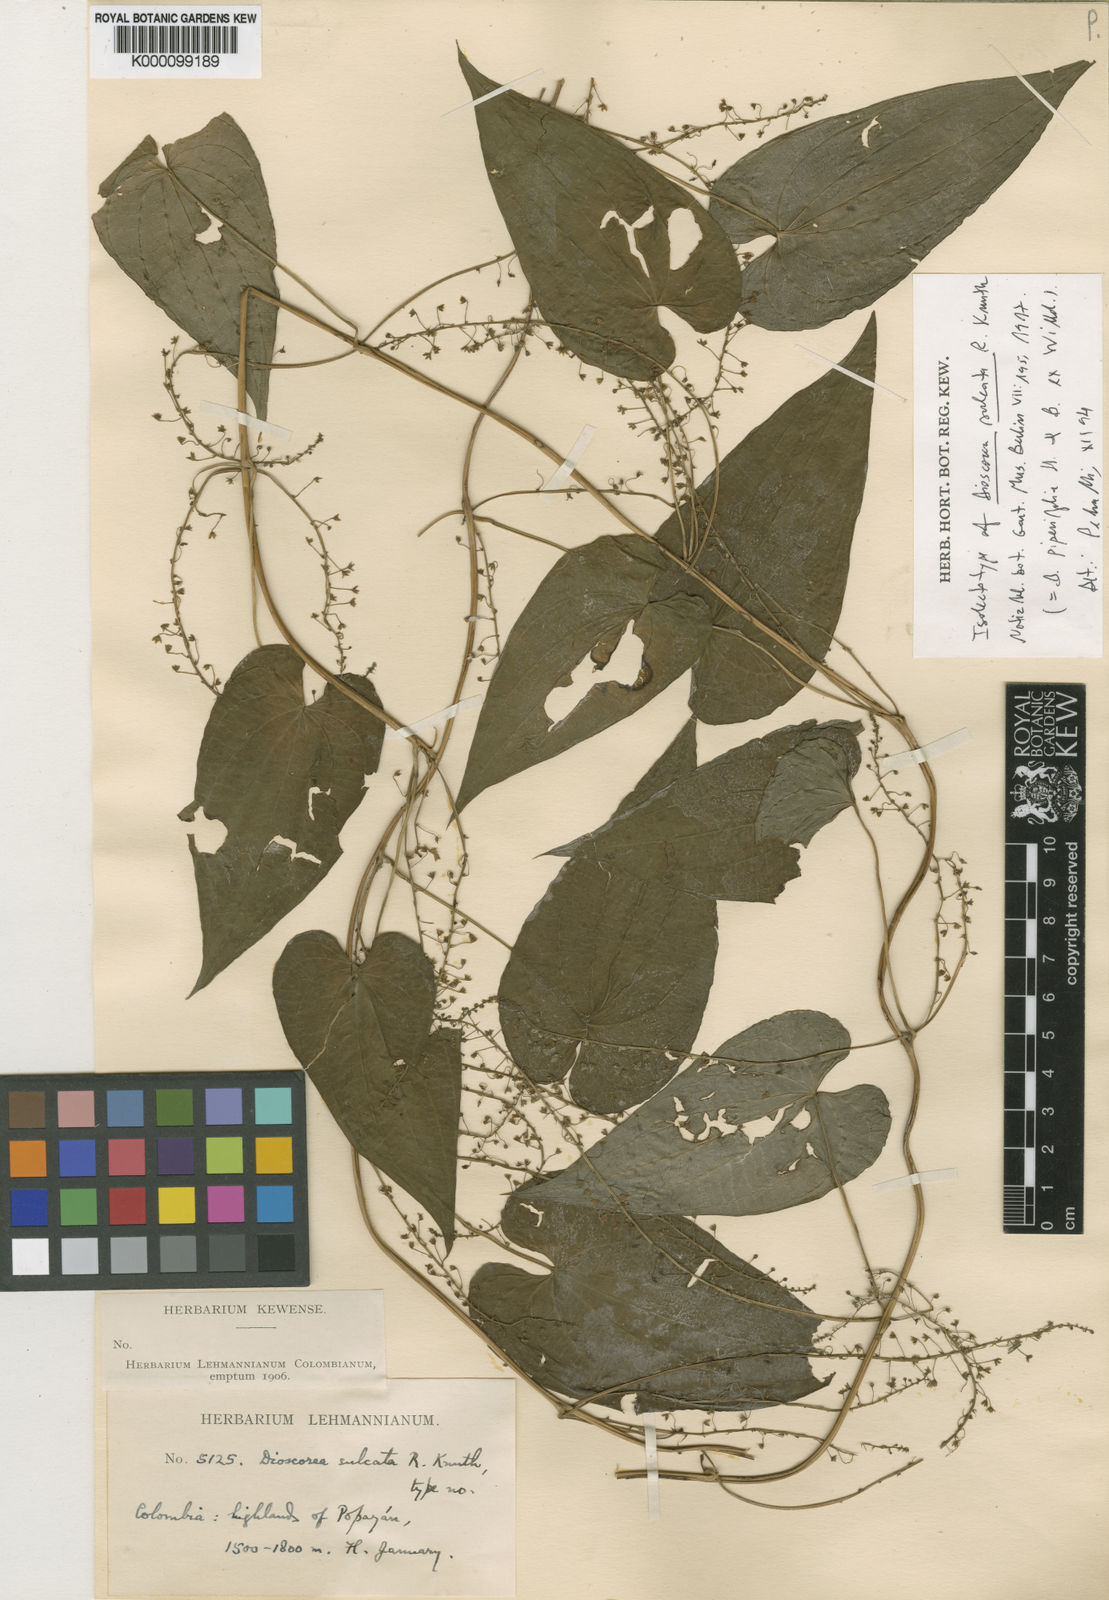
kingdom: Plantae
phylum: Tracheophyta
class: Liliopsida
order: Dioscoreales
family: Dioscoreaceae
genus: Dioscorea
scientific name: Dioscorea acanthogene
